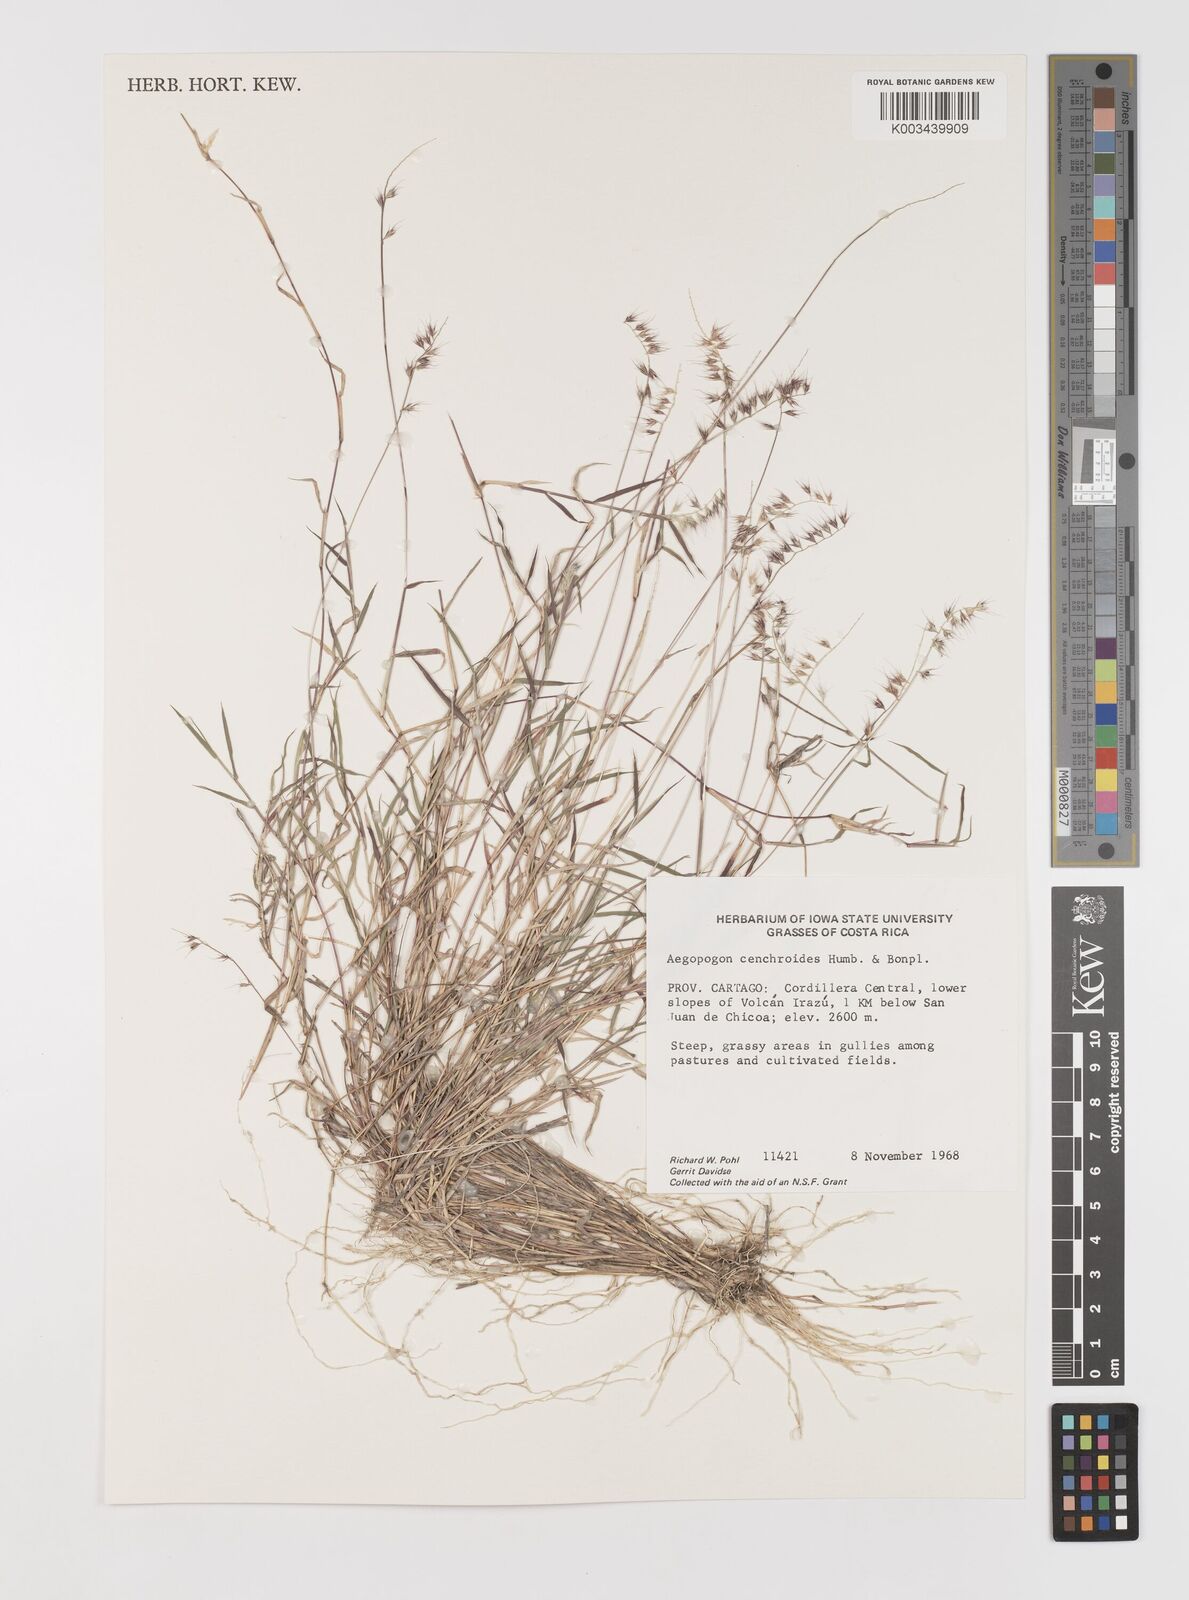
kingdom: Plantae
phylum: Tracheophyta
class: Liliopsida
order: Poales
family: Poaceae
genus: Muhlenbergia
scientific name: Muhlenbergia cenchroides
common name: Relaxgrass
